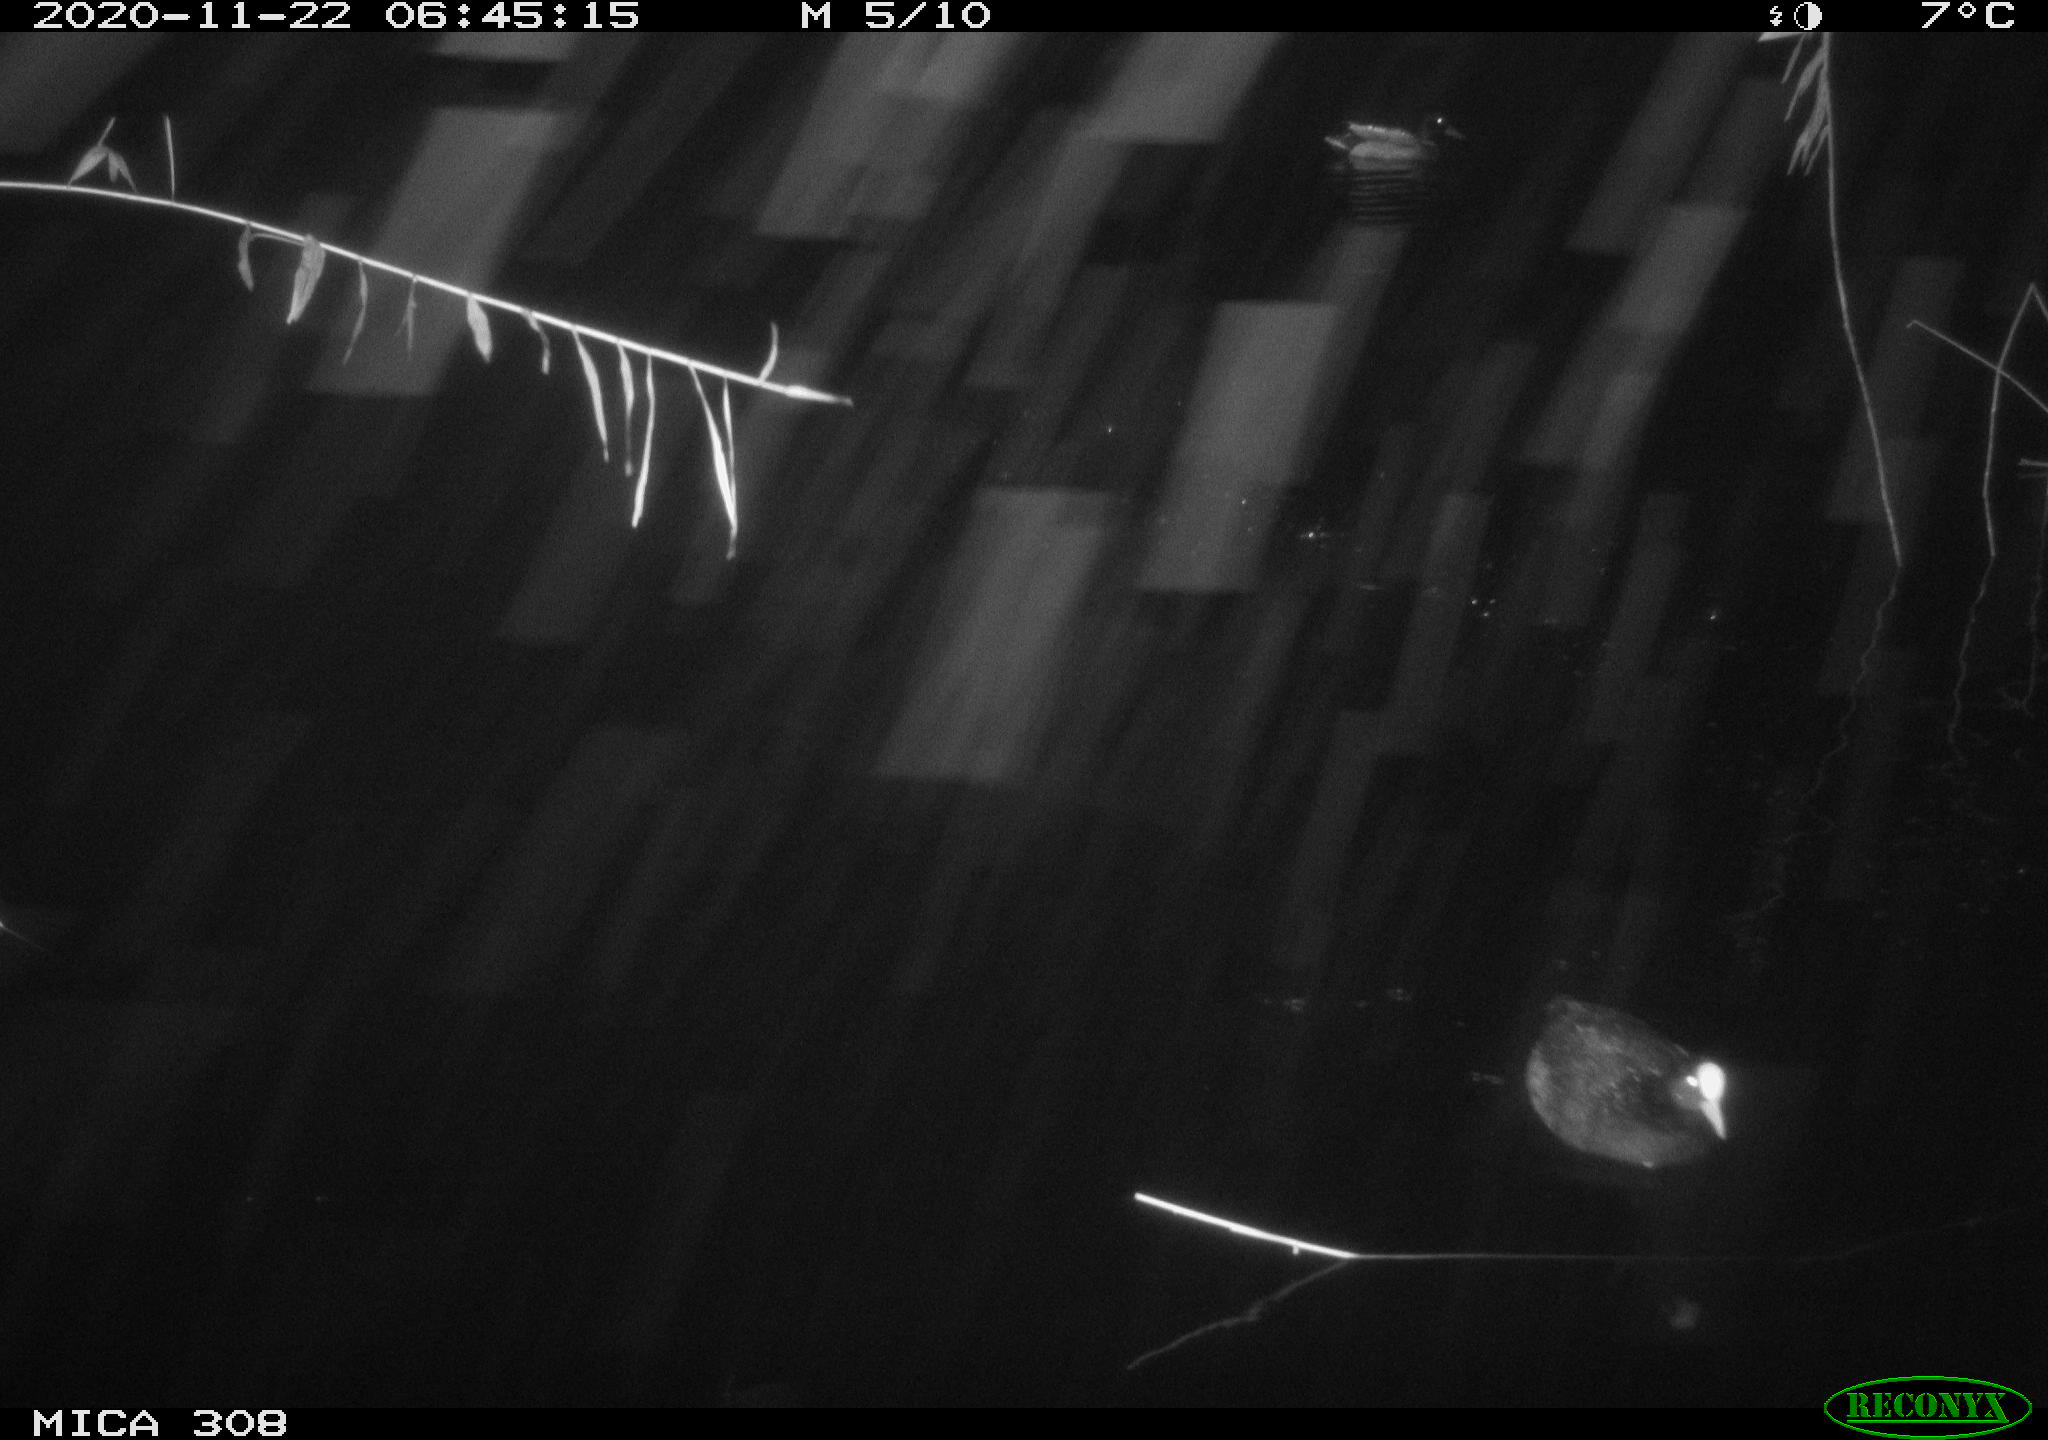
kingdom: Animalia
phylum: Chordata
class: Aves
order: Gruiformes
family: Rallidae
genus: Gallinula
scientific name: Gallinula chloropus
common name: Common moorhen
